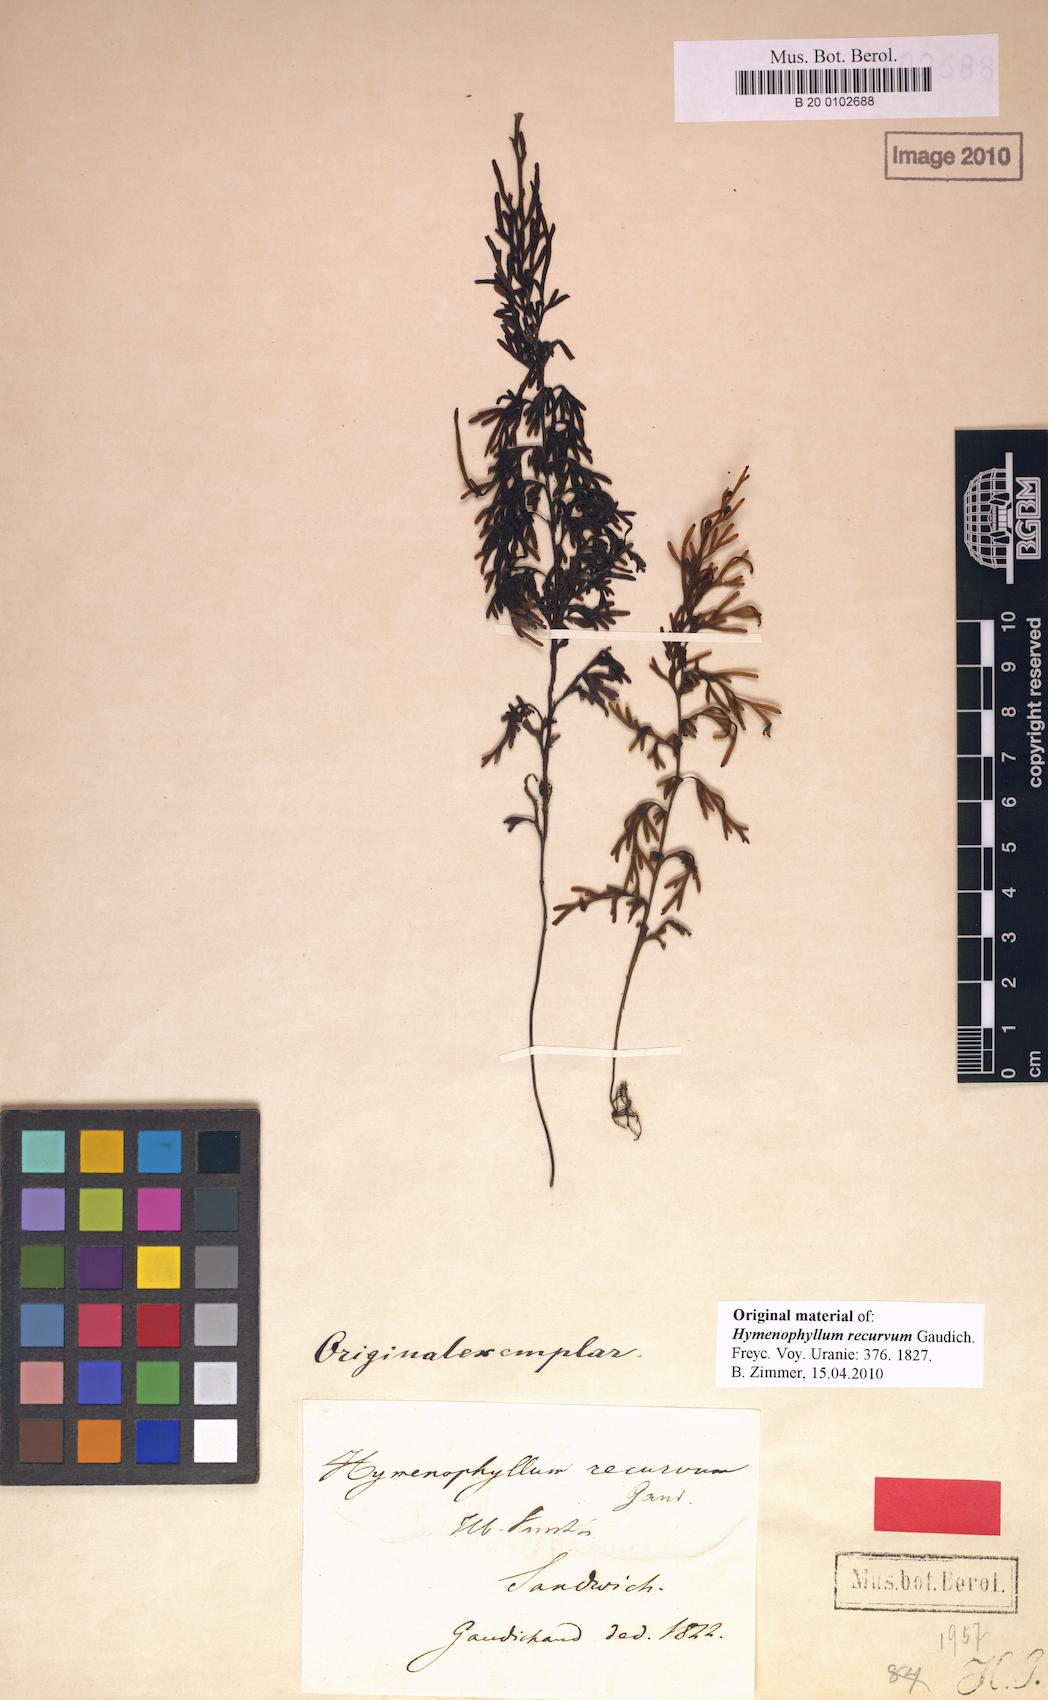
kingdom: Plantae
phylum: Tracheophyta
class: Polypodiopsida
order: Hymenophyllales
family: Hymenophyllaceae
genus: Hymenophyllum
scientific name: Hymenophyllum recurvum
